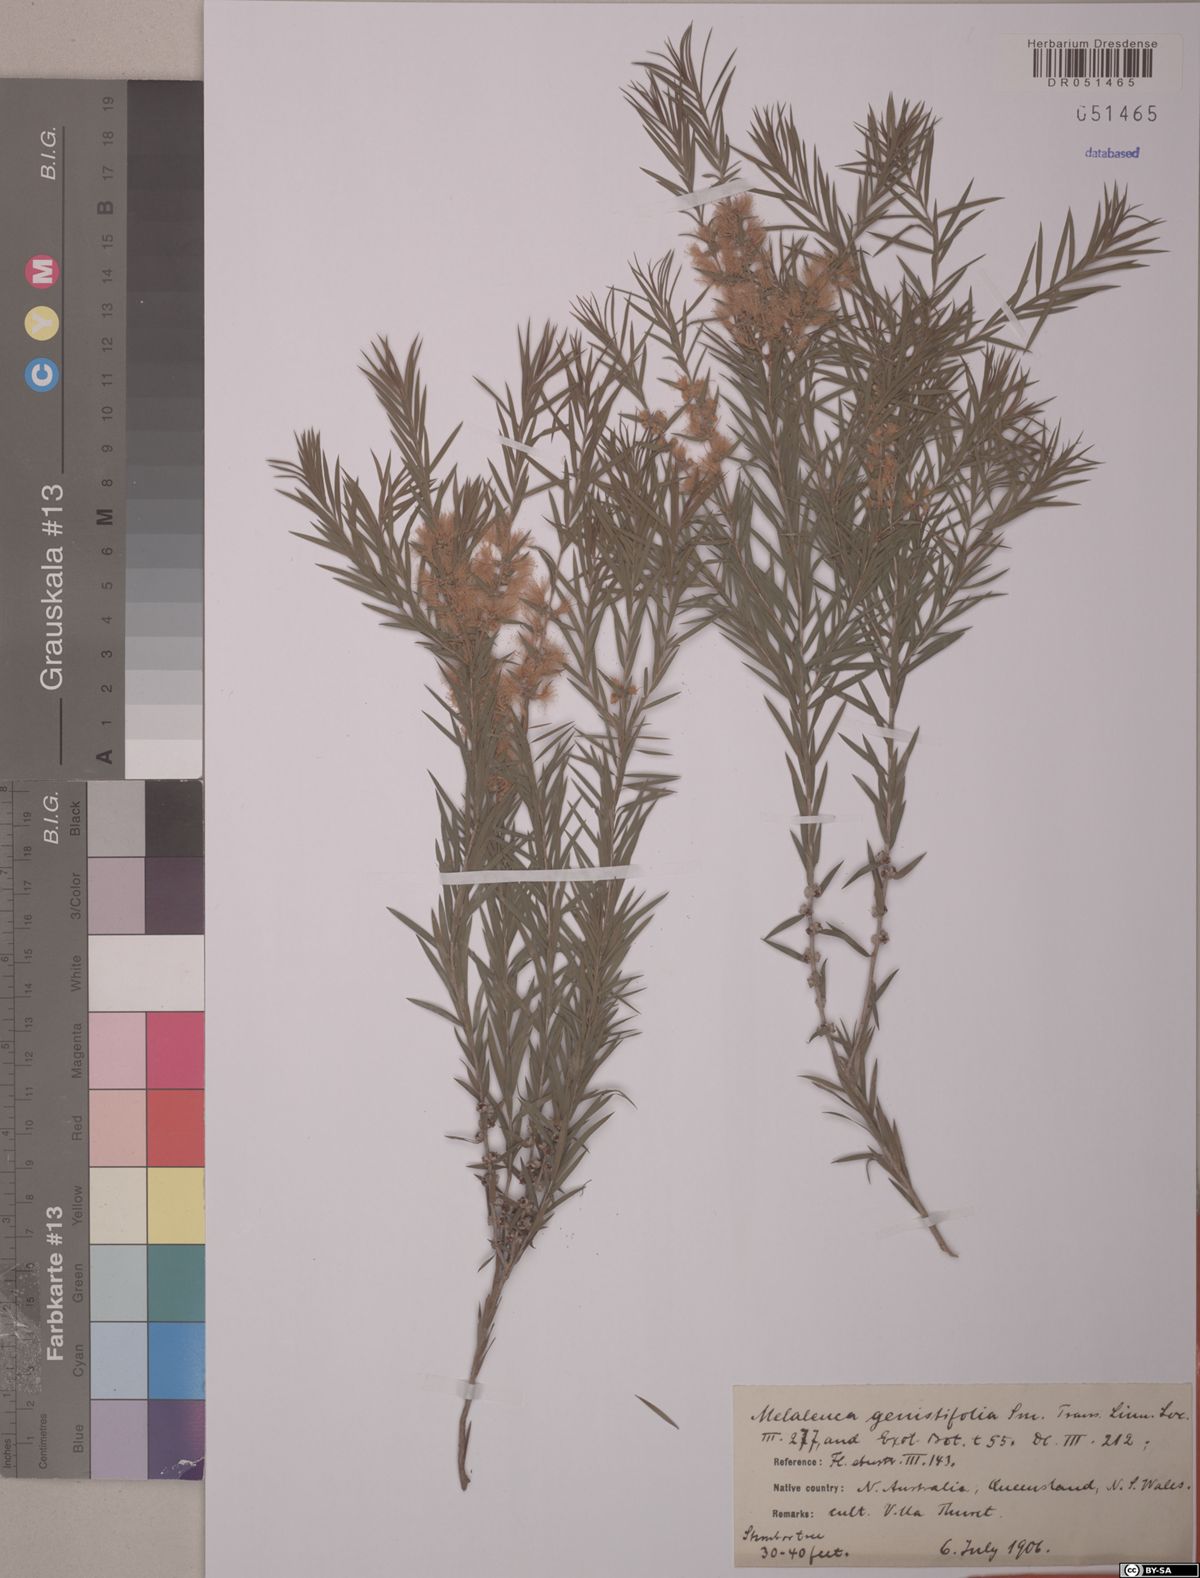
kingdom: Plantae
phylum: Tracheophyta
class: Magnoliopsida
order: Myrtales
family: Myrtaceae
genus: Melaleuca
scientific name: Melaleuca decora
